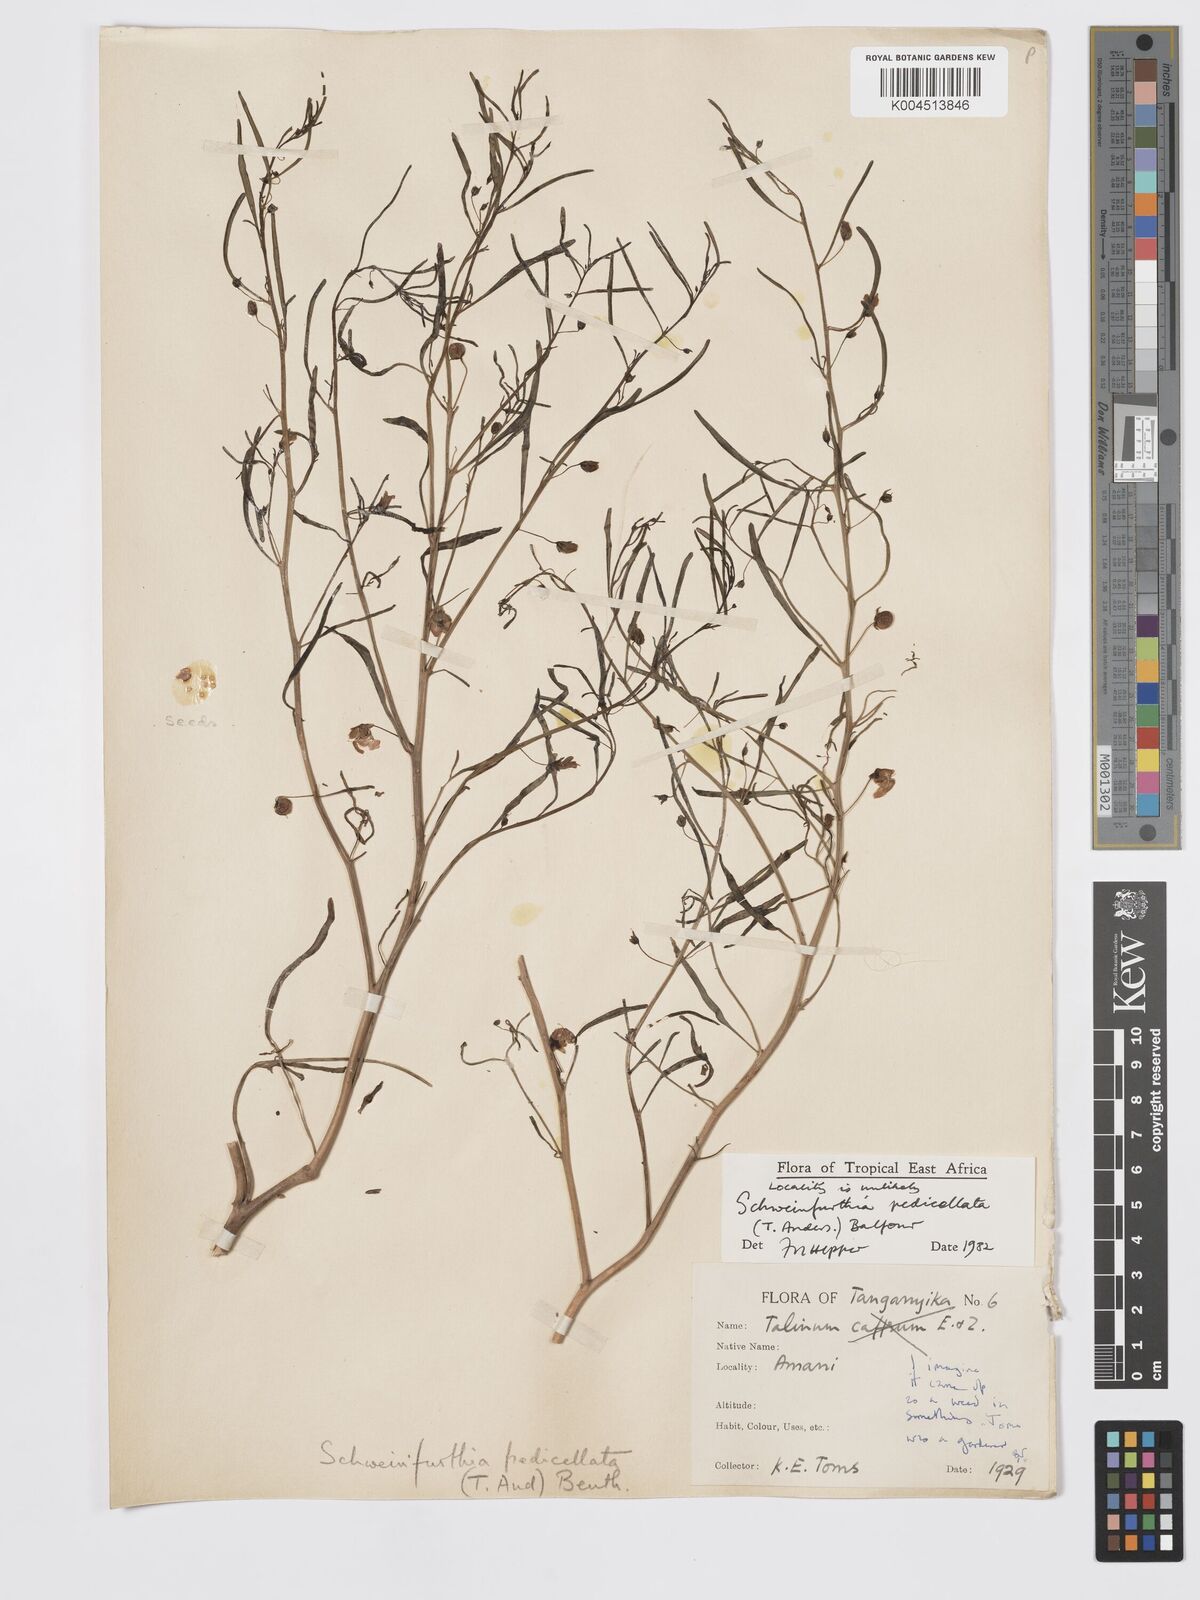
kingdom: Plantae
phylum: Tracheophyta
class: Magnoliopsida
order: Lamiales
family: Plantaginaceae
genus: Schweinfurthia
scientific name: Schweinfurthia pedicellata
